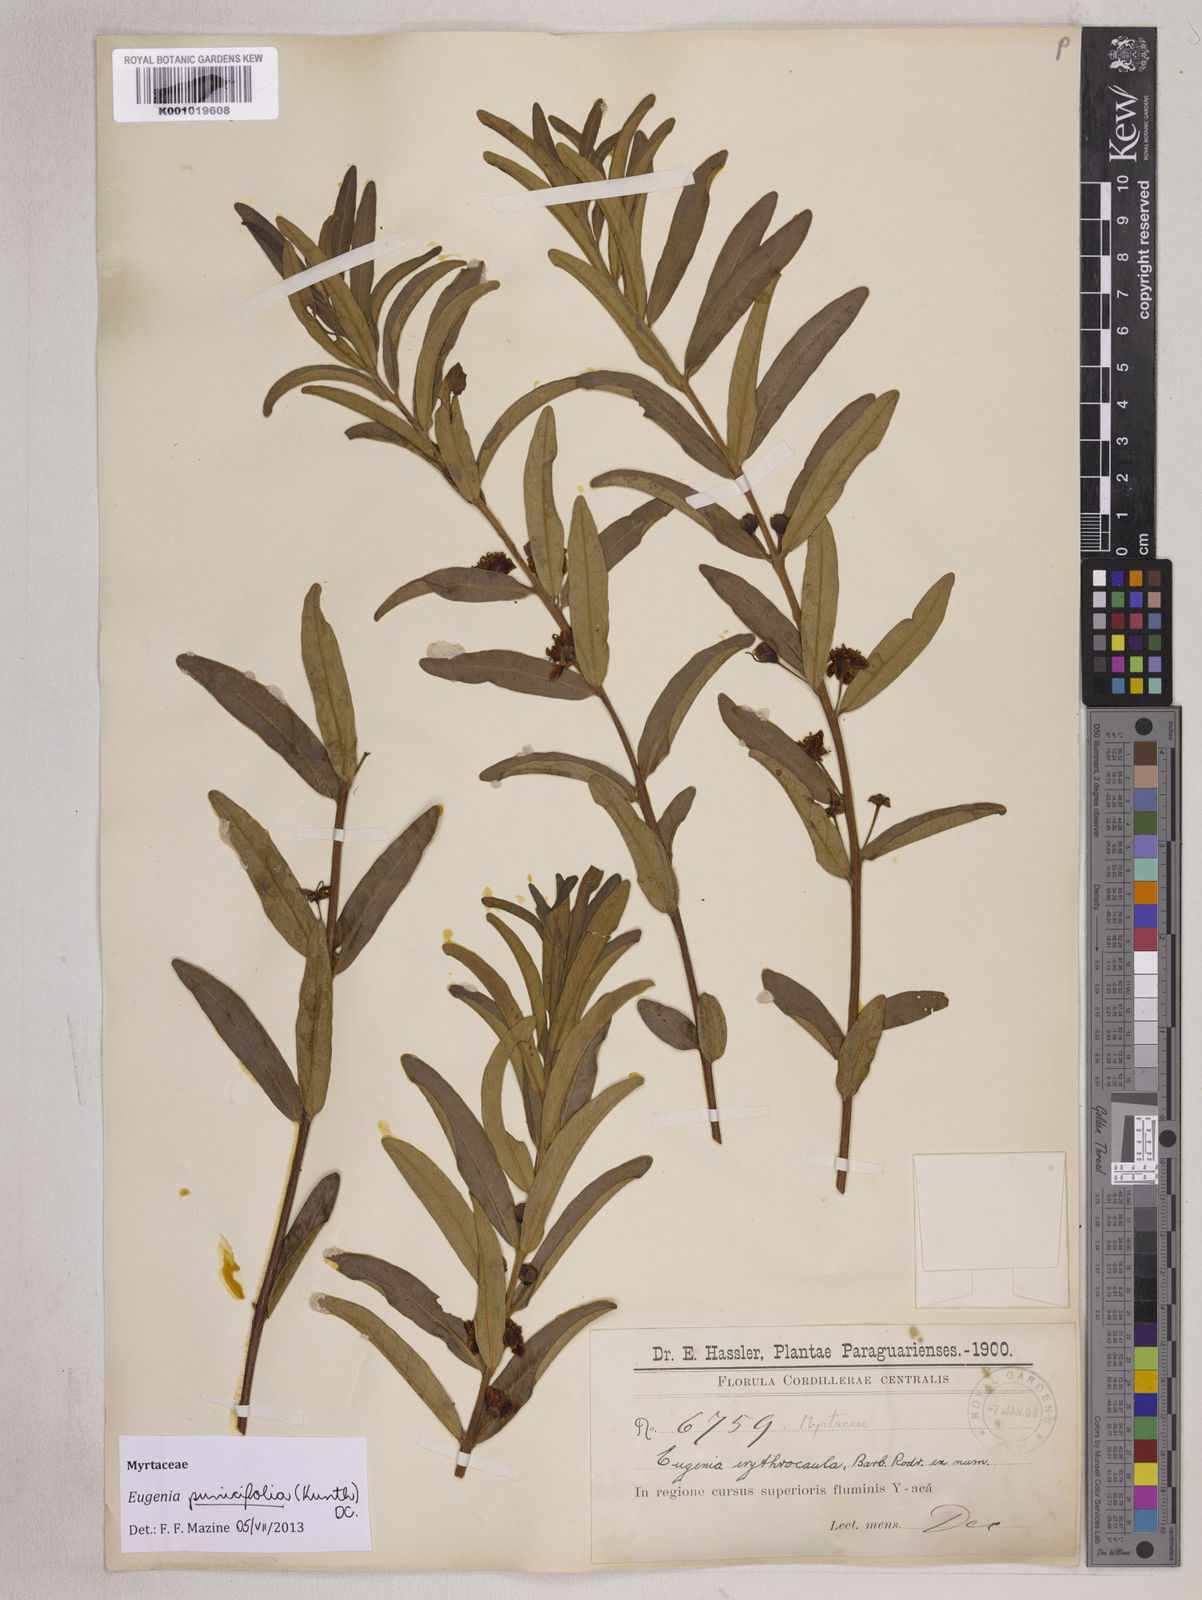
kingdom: Plantae
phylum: Tracheophyta
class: Magnoliopsida
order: Myrtales
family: Myrtaceae
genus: Eugenia
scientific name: Eugenia punicifolia
